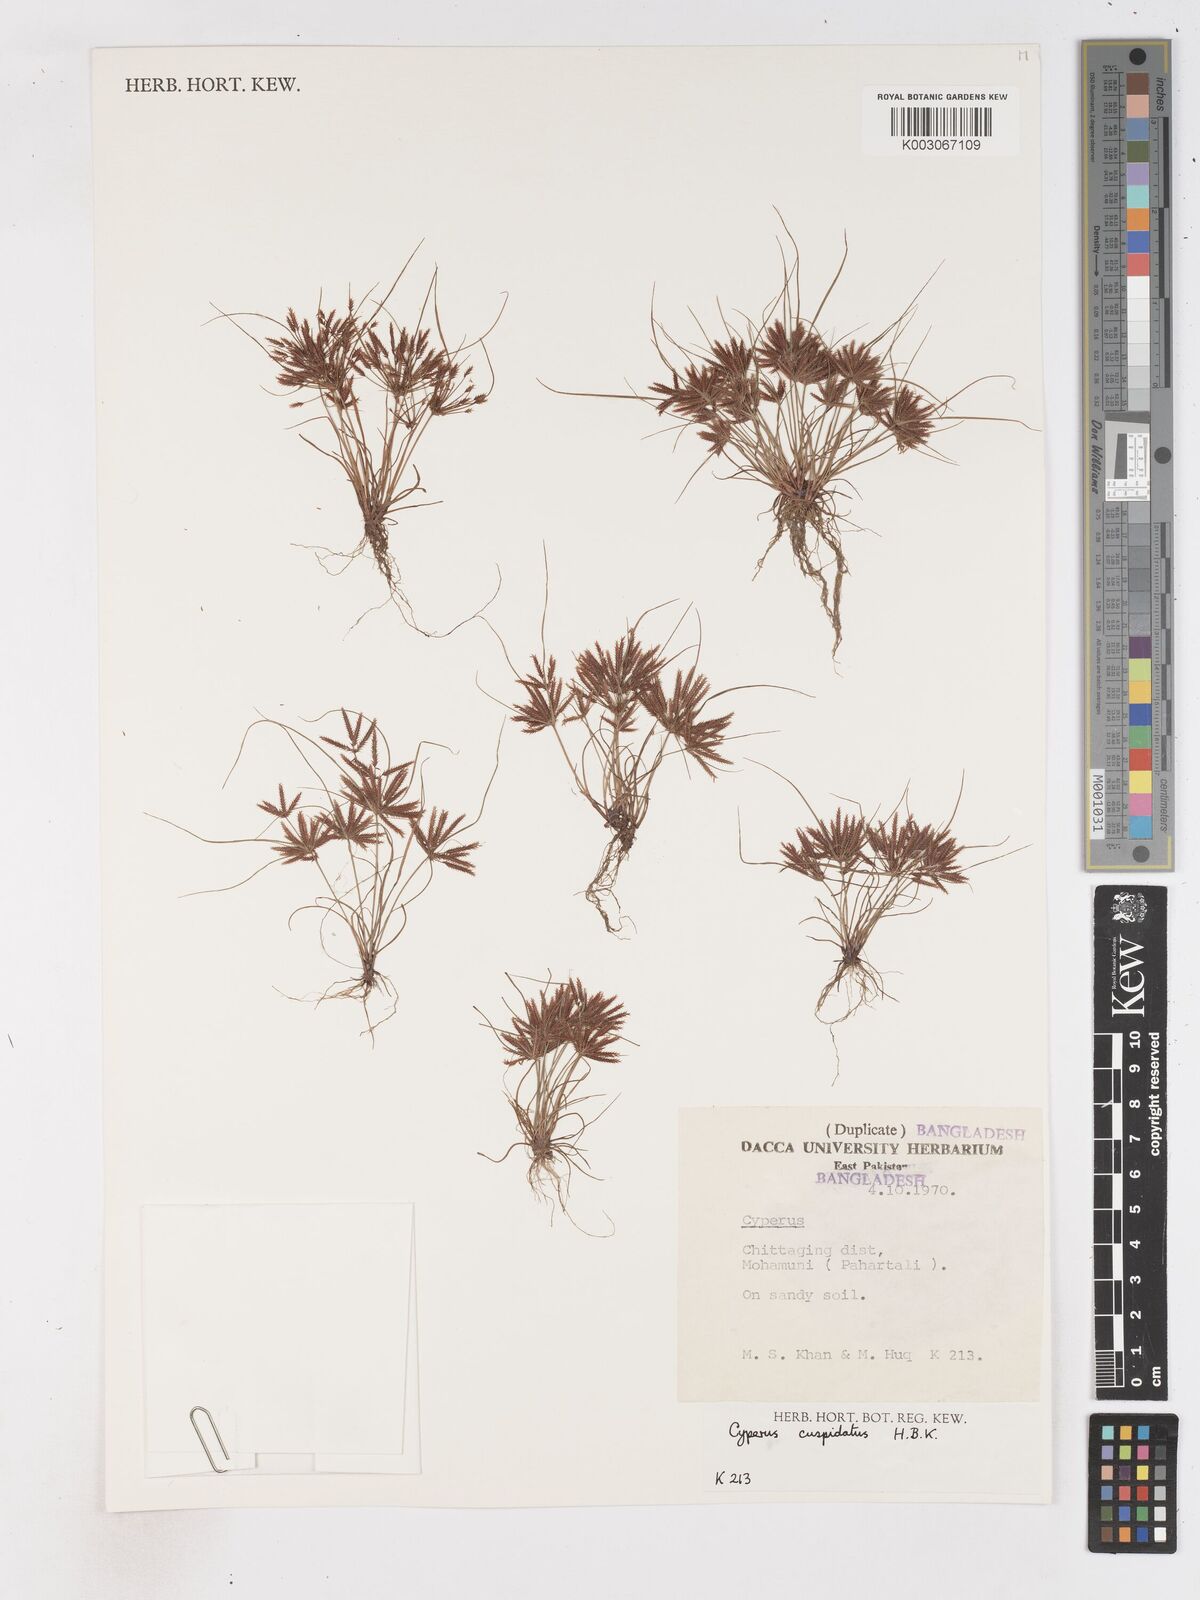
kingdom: Plantae
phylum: Tracheophyta
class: Liliopsida
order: Poales
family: Cyperaceae
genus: Cyperus
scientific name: Cyperus cuspidatus
